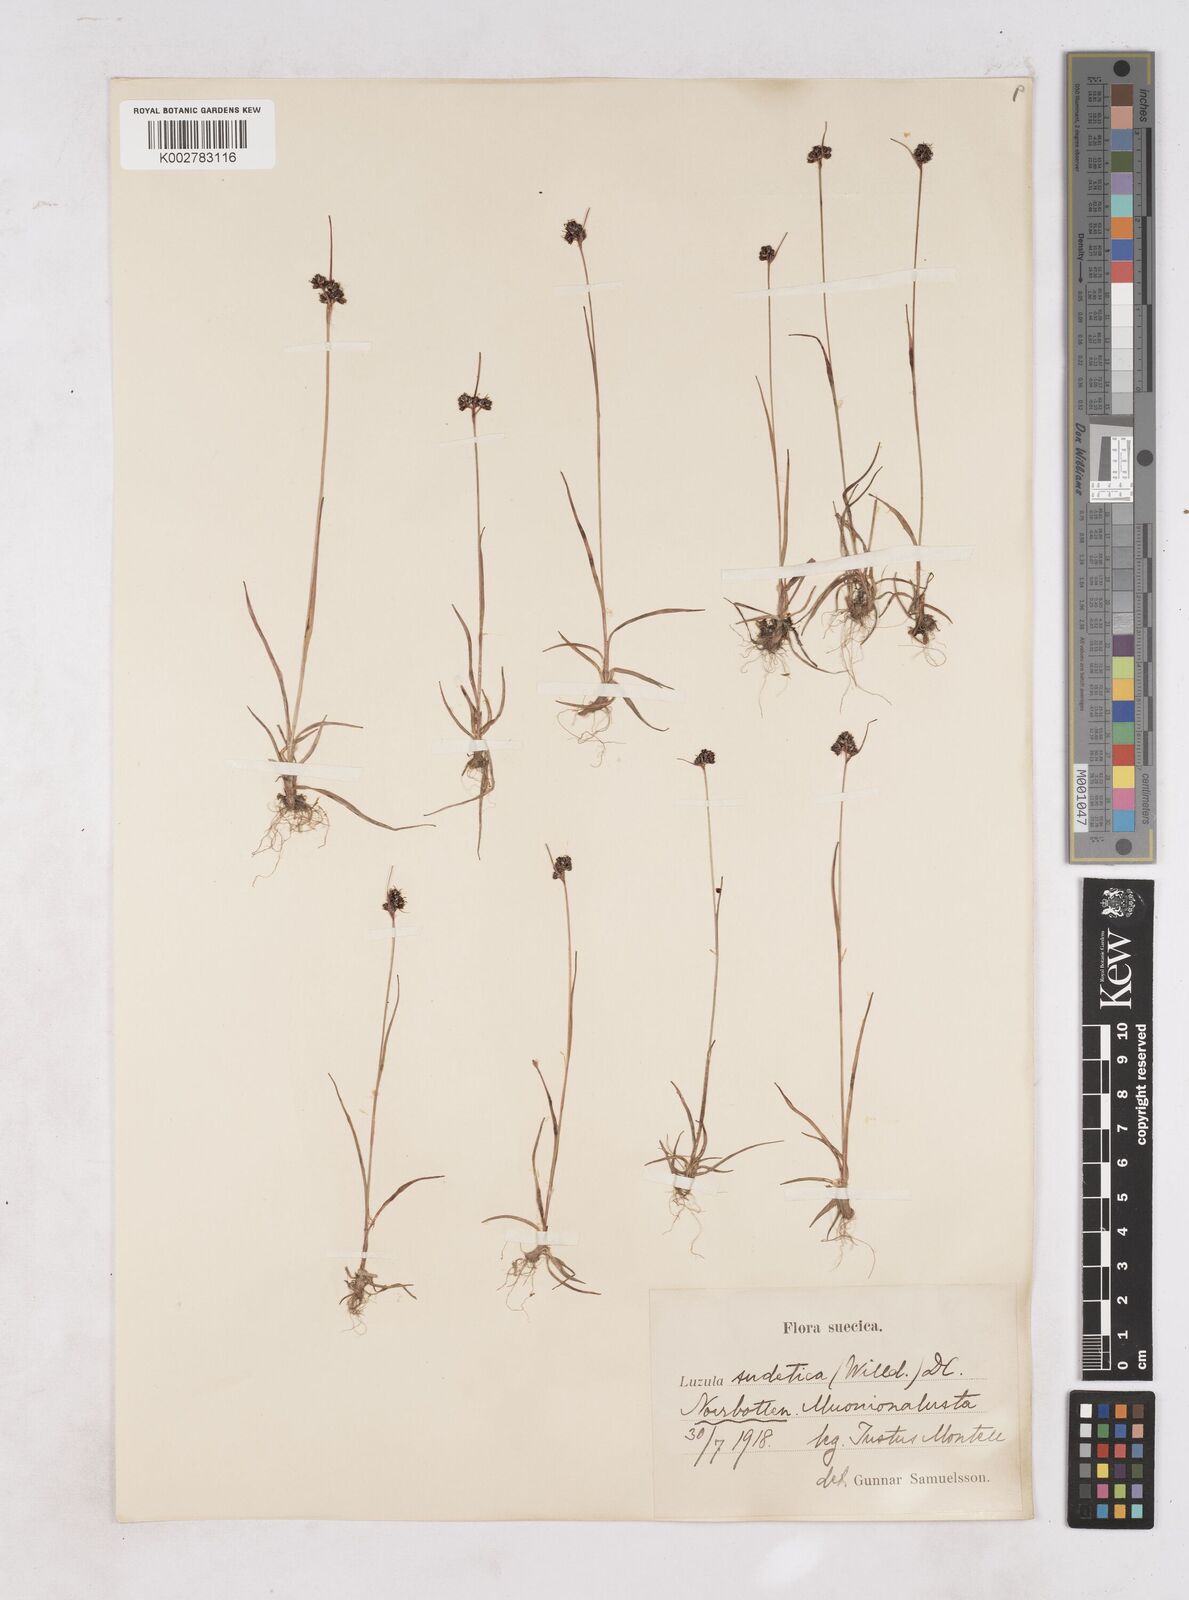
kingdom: Plantae
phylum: Tracheophyta
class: Liliopsida
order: Poales
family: Juncaceae
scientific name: Juncaceae
